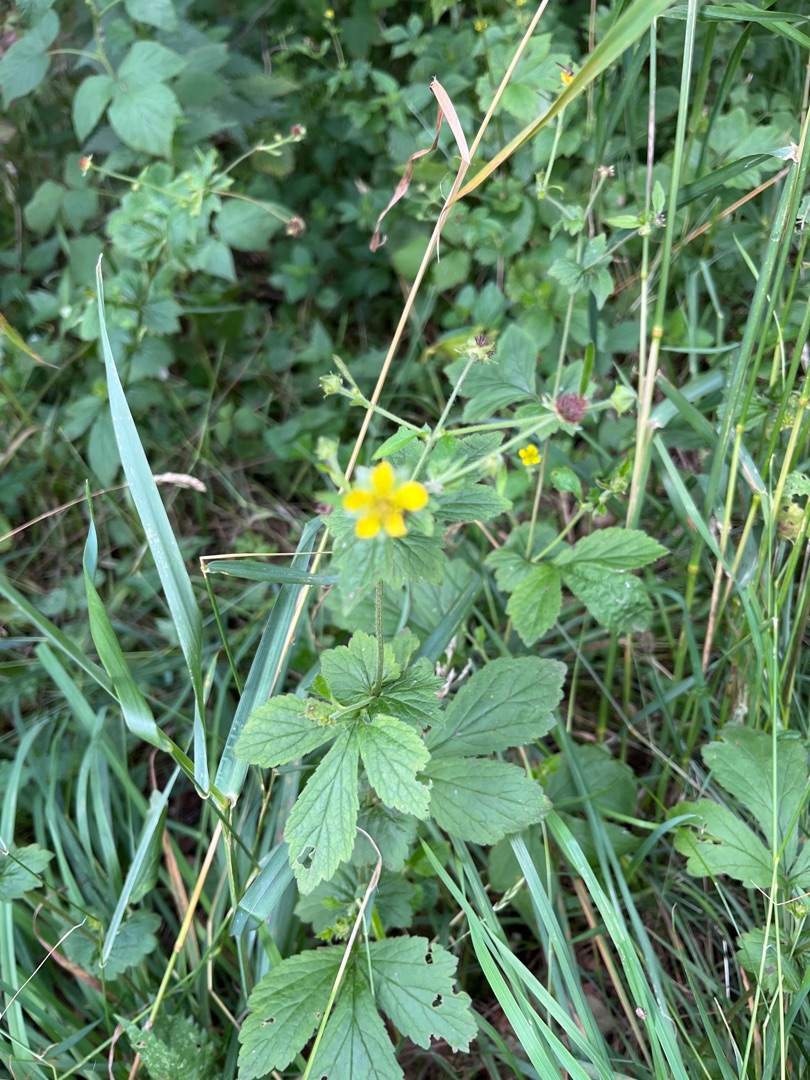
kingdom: Plantae
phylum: Tracheophyta
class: Magnoliopsida
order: Rosales
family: Rosaceae
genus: Geum
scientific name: Geum urbanum
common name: Feber-nellikerod
